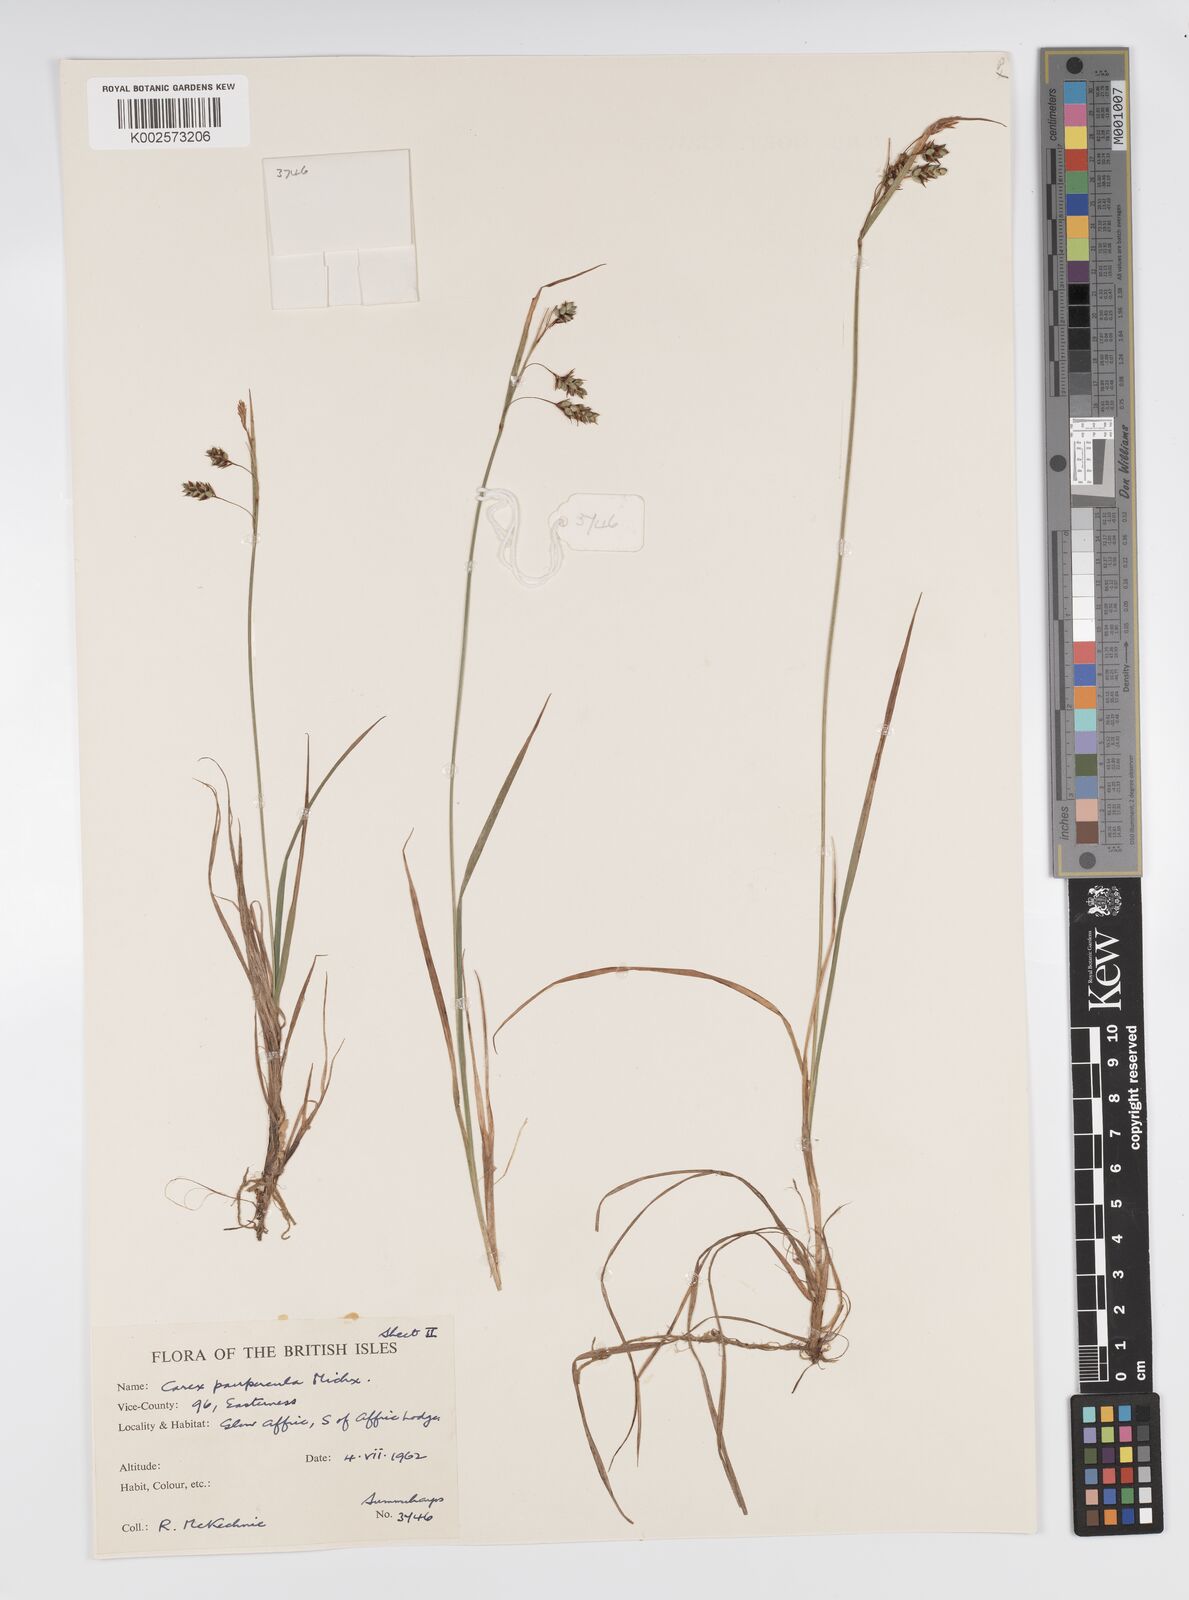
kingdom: Plantae
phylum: Tracheophyta
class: Liliopsida
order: Poales
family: Cyperaceae
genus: Carex
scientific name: Carex magellanica
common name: Bog sedge
